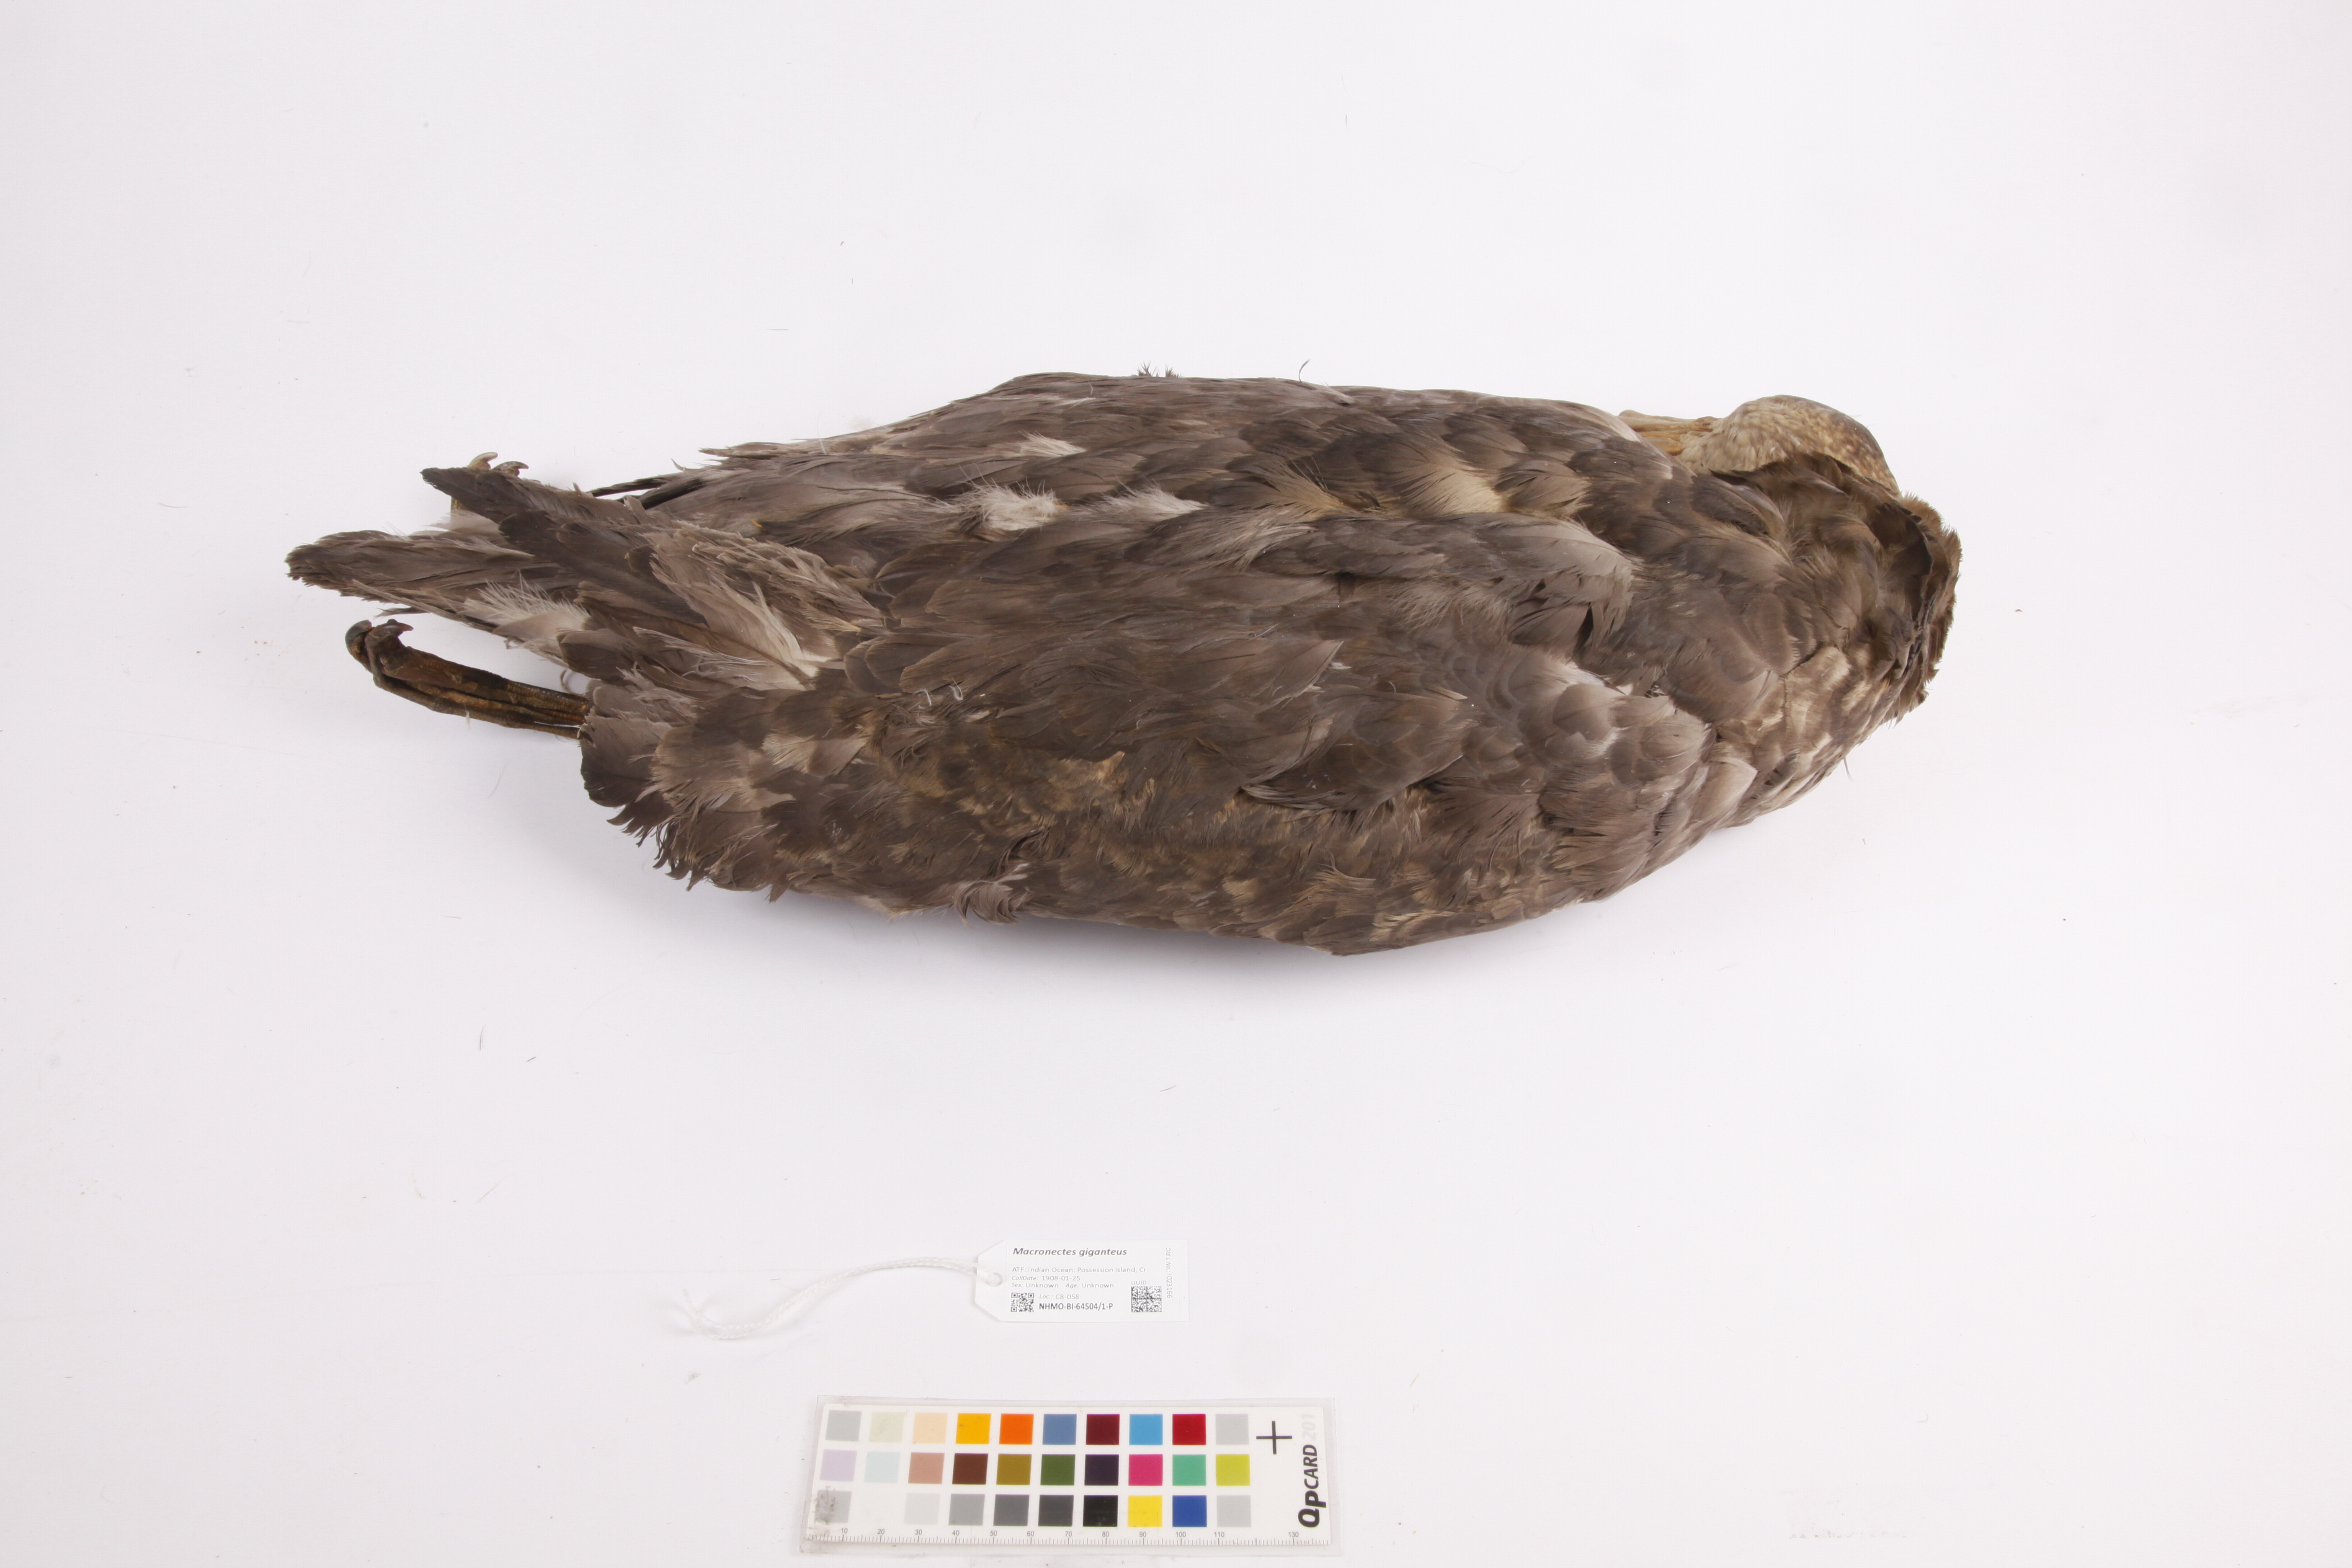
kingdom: Animalia
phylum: Chordata
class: Aves
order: Procellariiformes
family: Procellariidae
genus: Macronectes
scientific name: Macronectes giganteus
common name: Southern giant petrel
